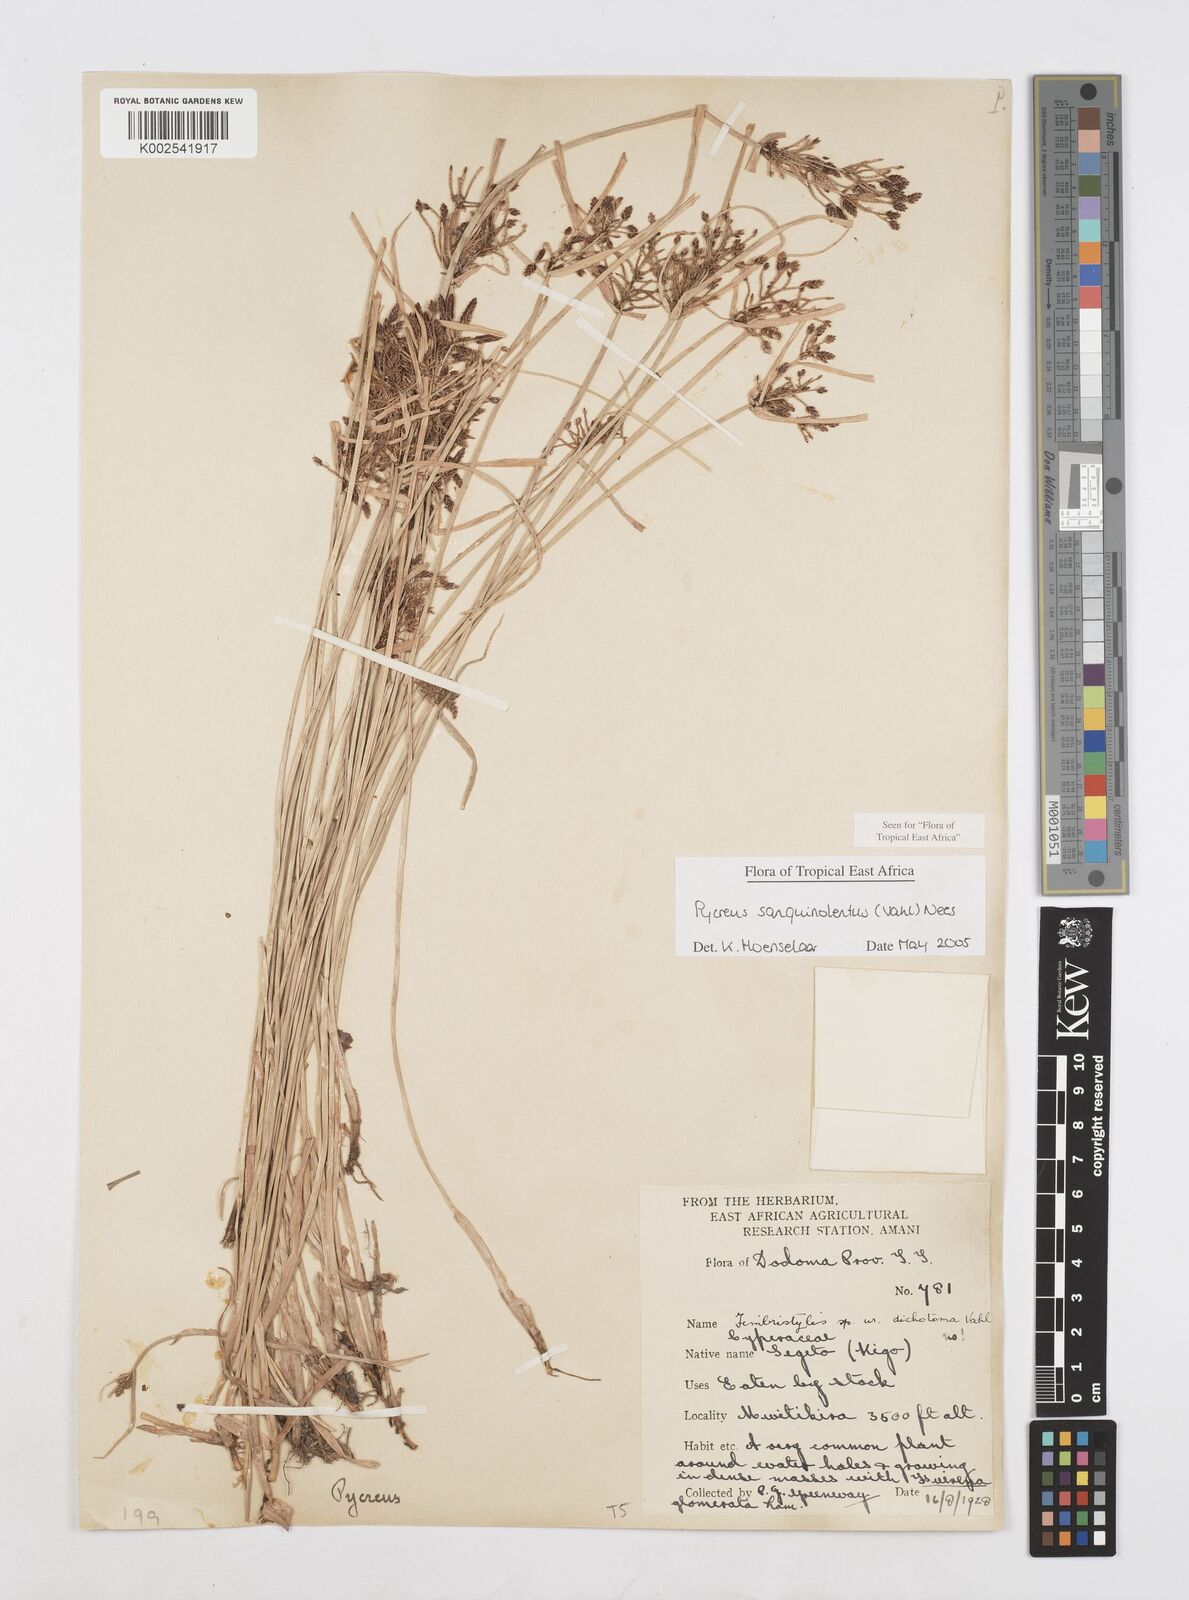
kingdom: Plantae
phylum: Tracheophyta
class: Liliopsida
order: Poales
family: Cyperaceae
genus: Cyperus
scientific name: Cyperus sanguinolentus
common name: Purpleglume flatsedge
